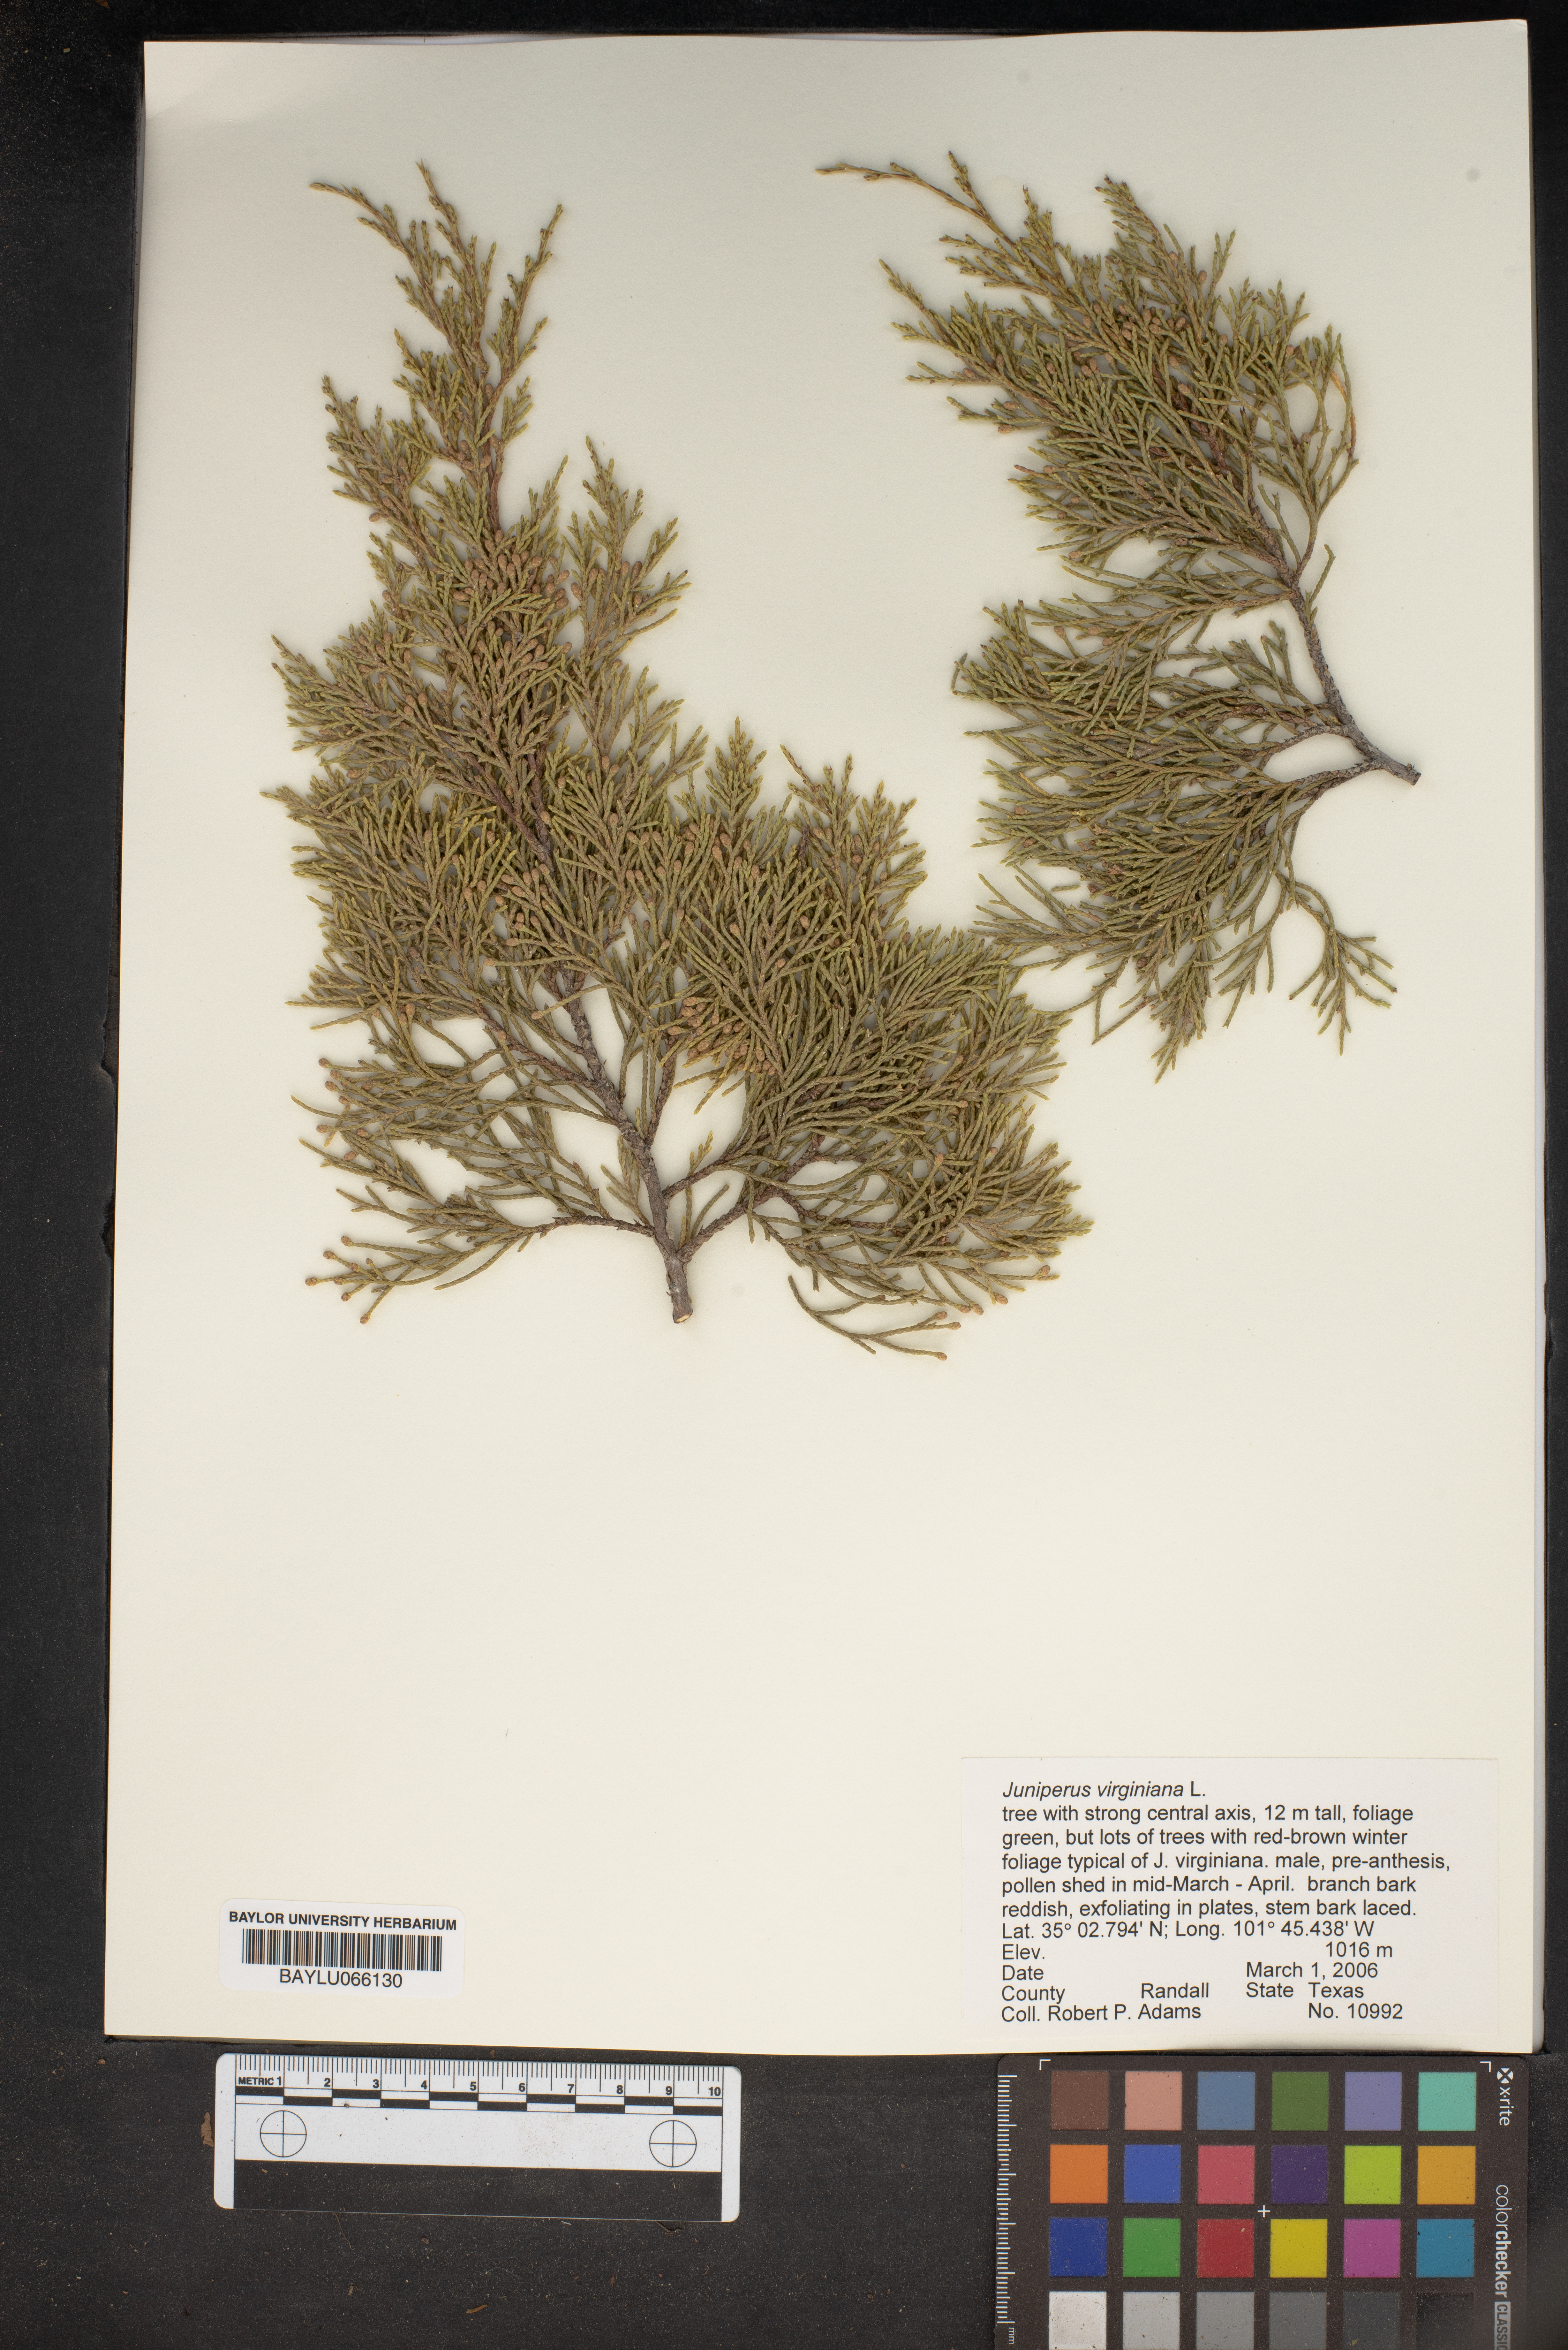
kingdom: Plantae
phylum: Tracheophyta
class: Pinopsida
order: Pinales
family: Cupressaceae
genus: Juniperus
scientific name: Juniperus virginiana
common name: Red juniper
